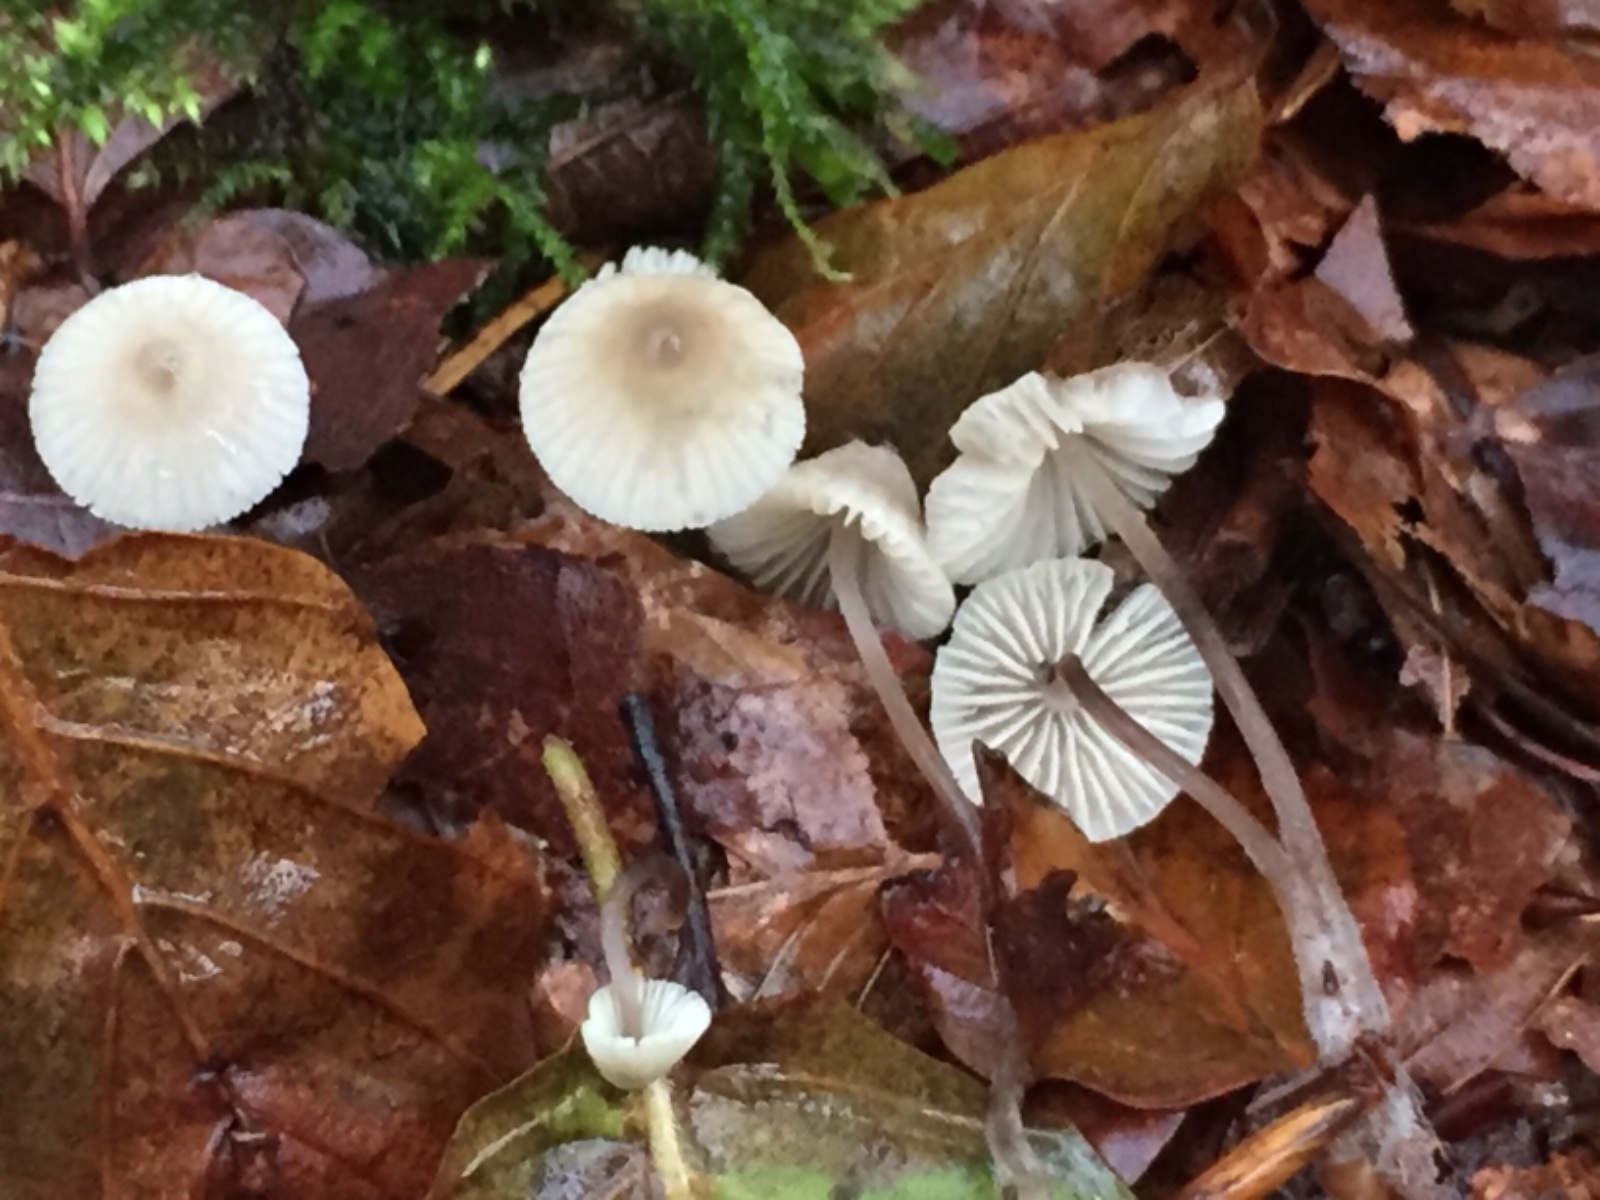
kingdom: Fungi
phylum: Basidiomycota
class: Agaricomycetes
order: Agaricales
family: Mycenaceae
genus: Mycena
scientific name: Mycena flavescens
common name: grågul huesvamp
